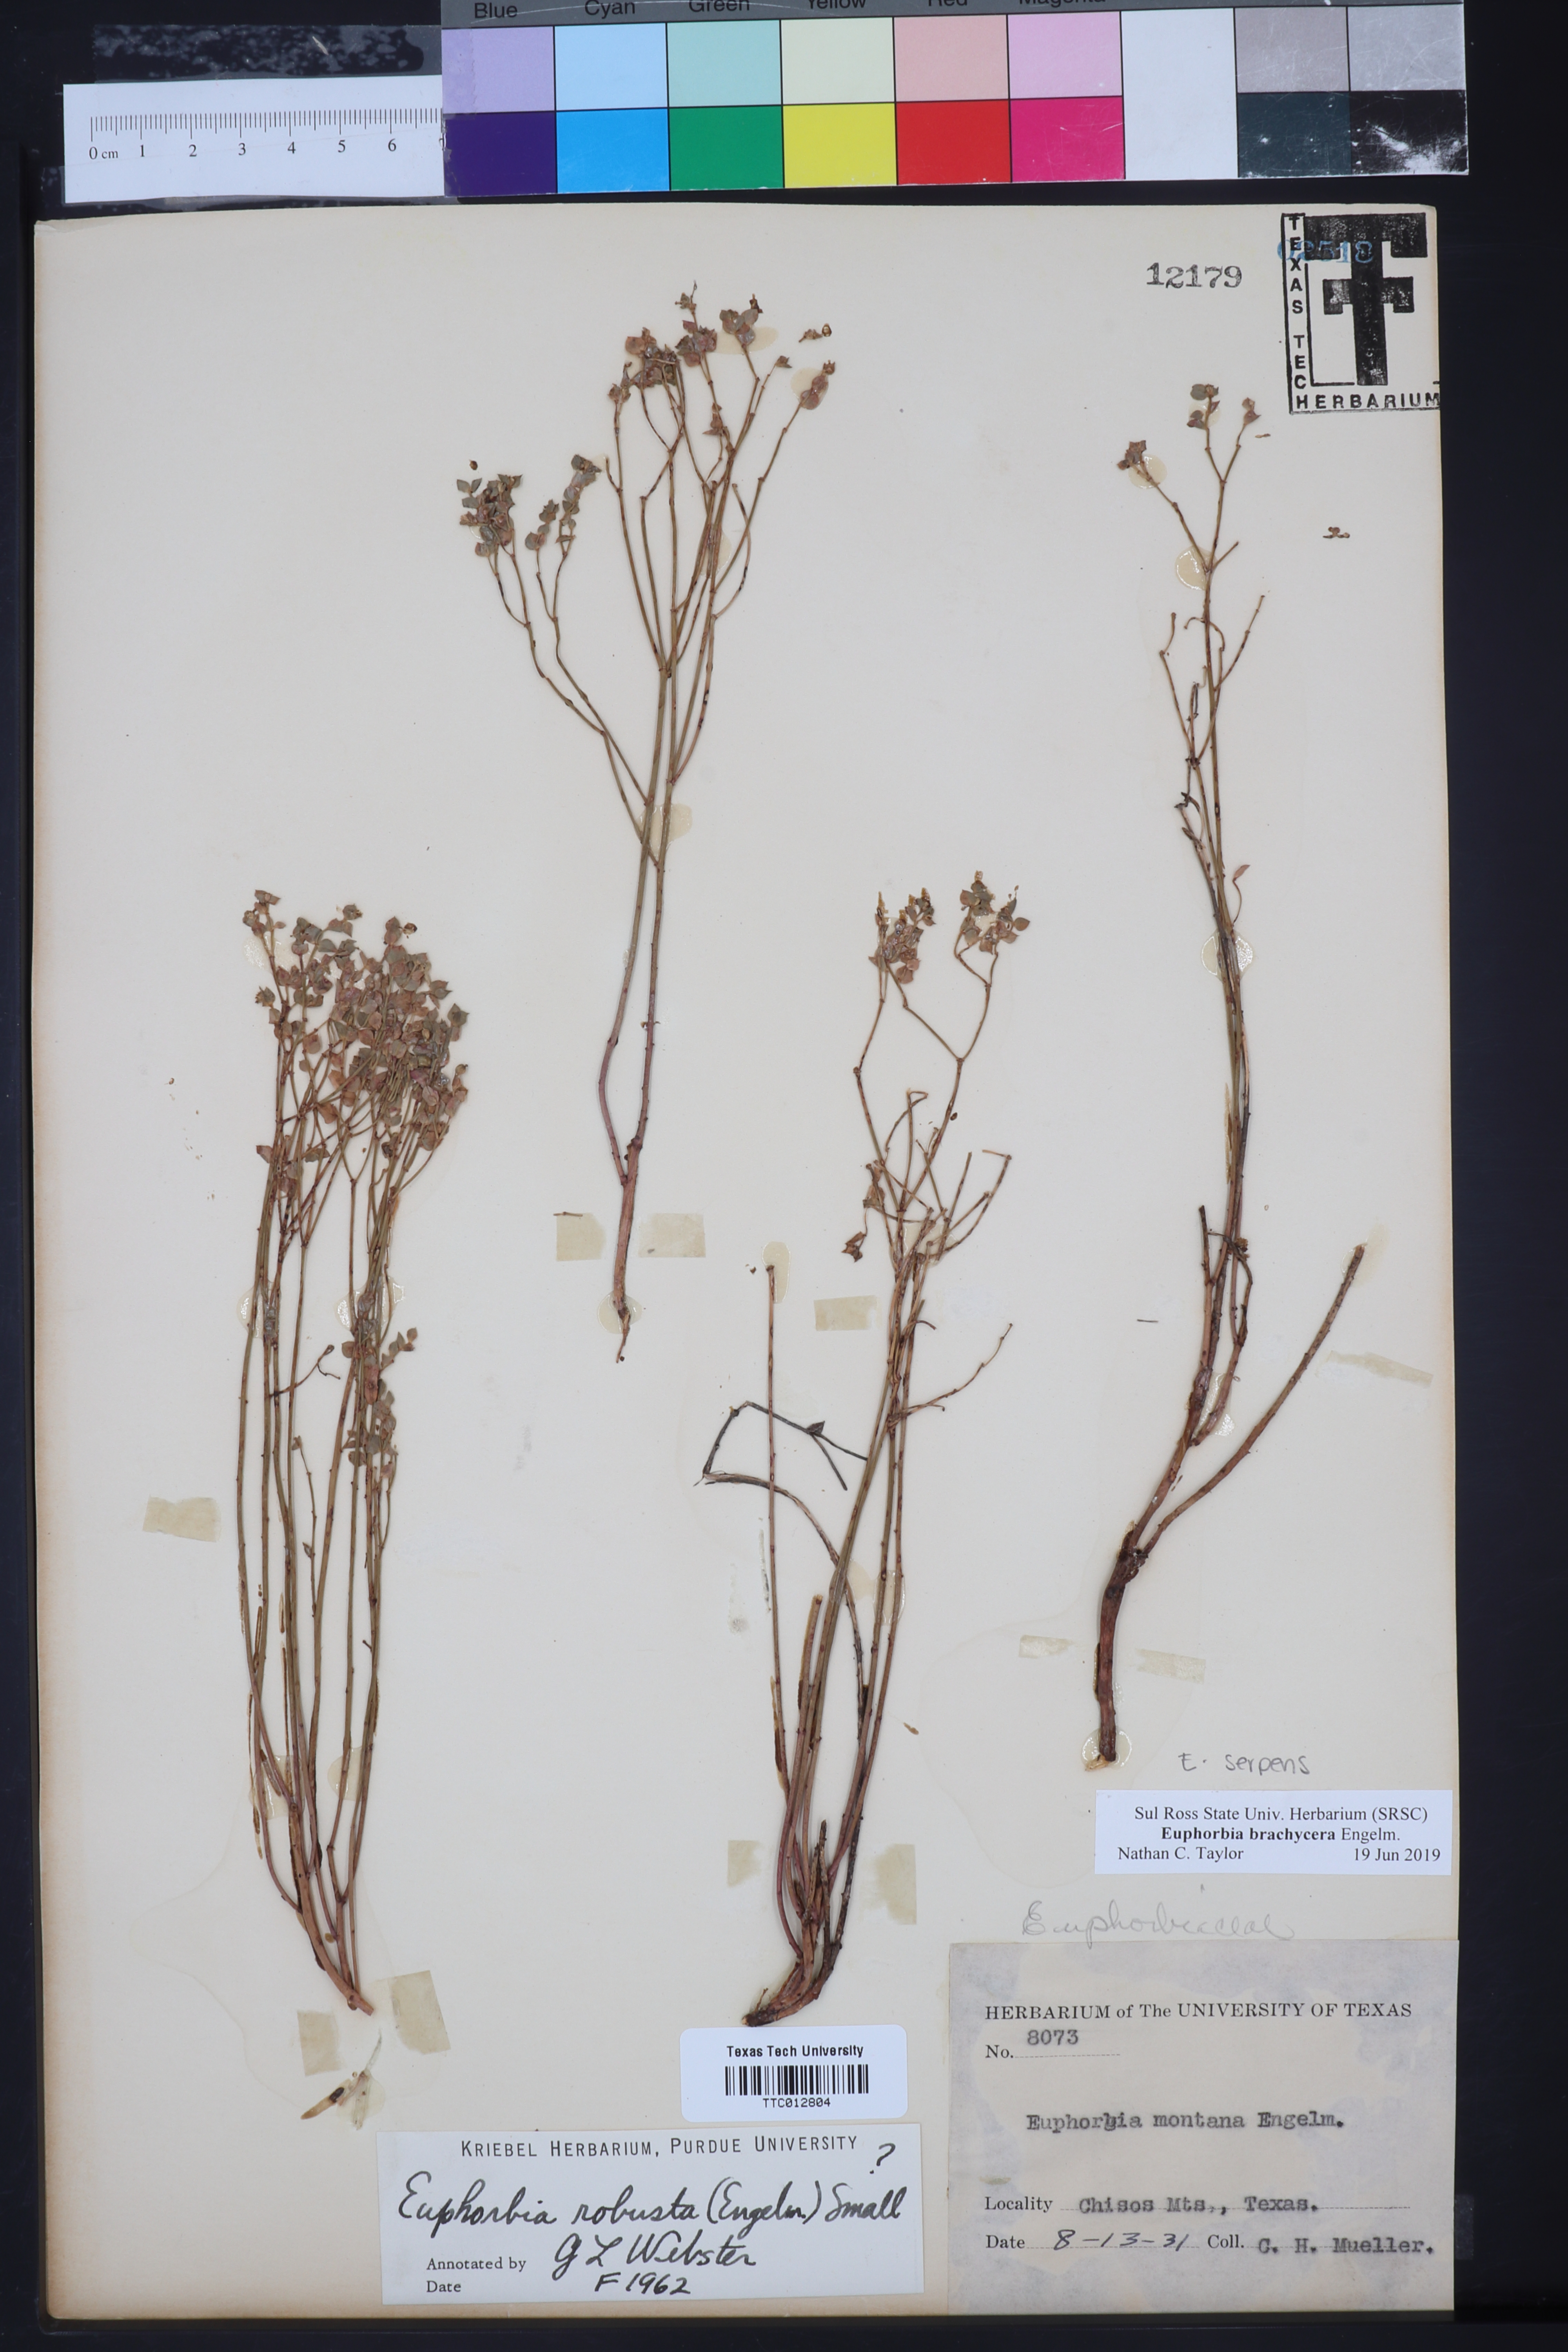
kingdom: Plantae
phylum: Tracheophyta
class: Magnoliopsida
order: Malpighiales
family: Euphorbiaceae
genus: Euphorbia
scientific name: Euphorbia brachycera
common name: Shorthorn spurge
